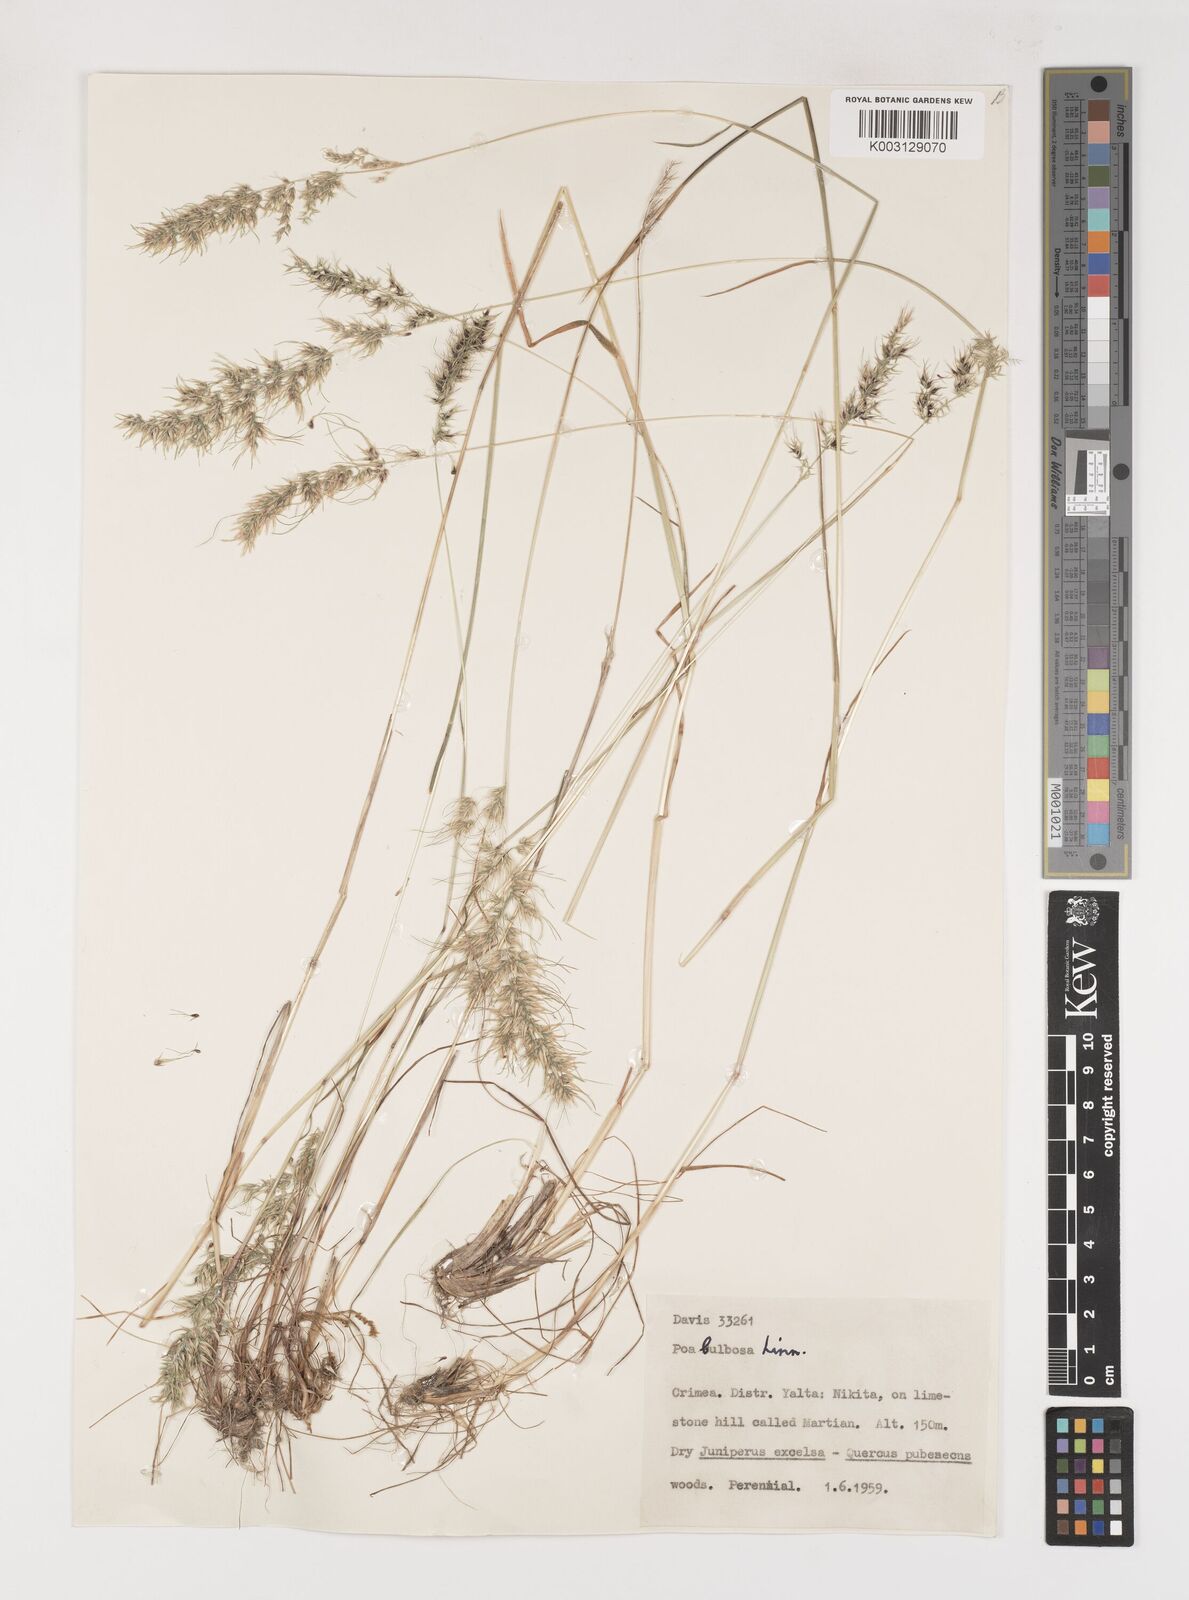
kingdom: Plantae
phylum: Tracheophyta
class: Liliopsida
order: Poales
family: Poaceae
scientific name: Poaceae
